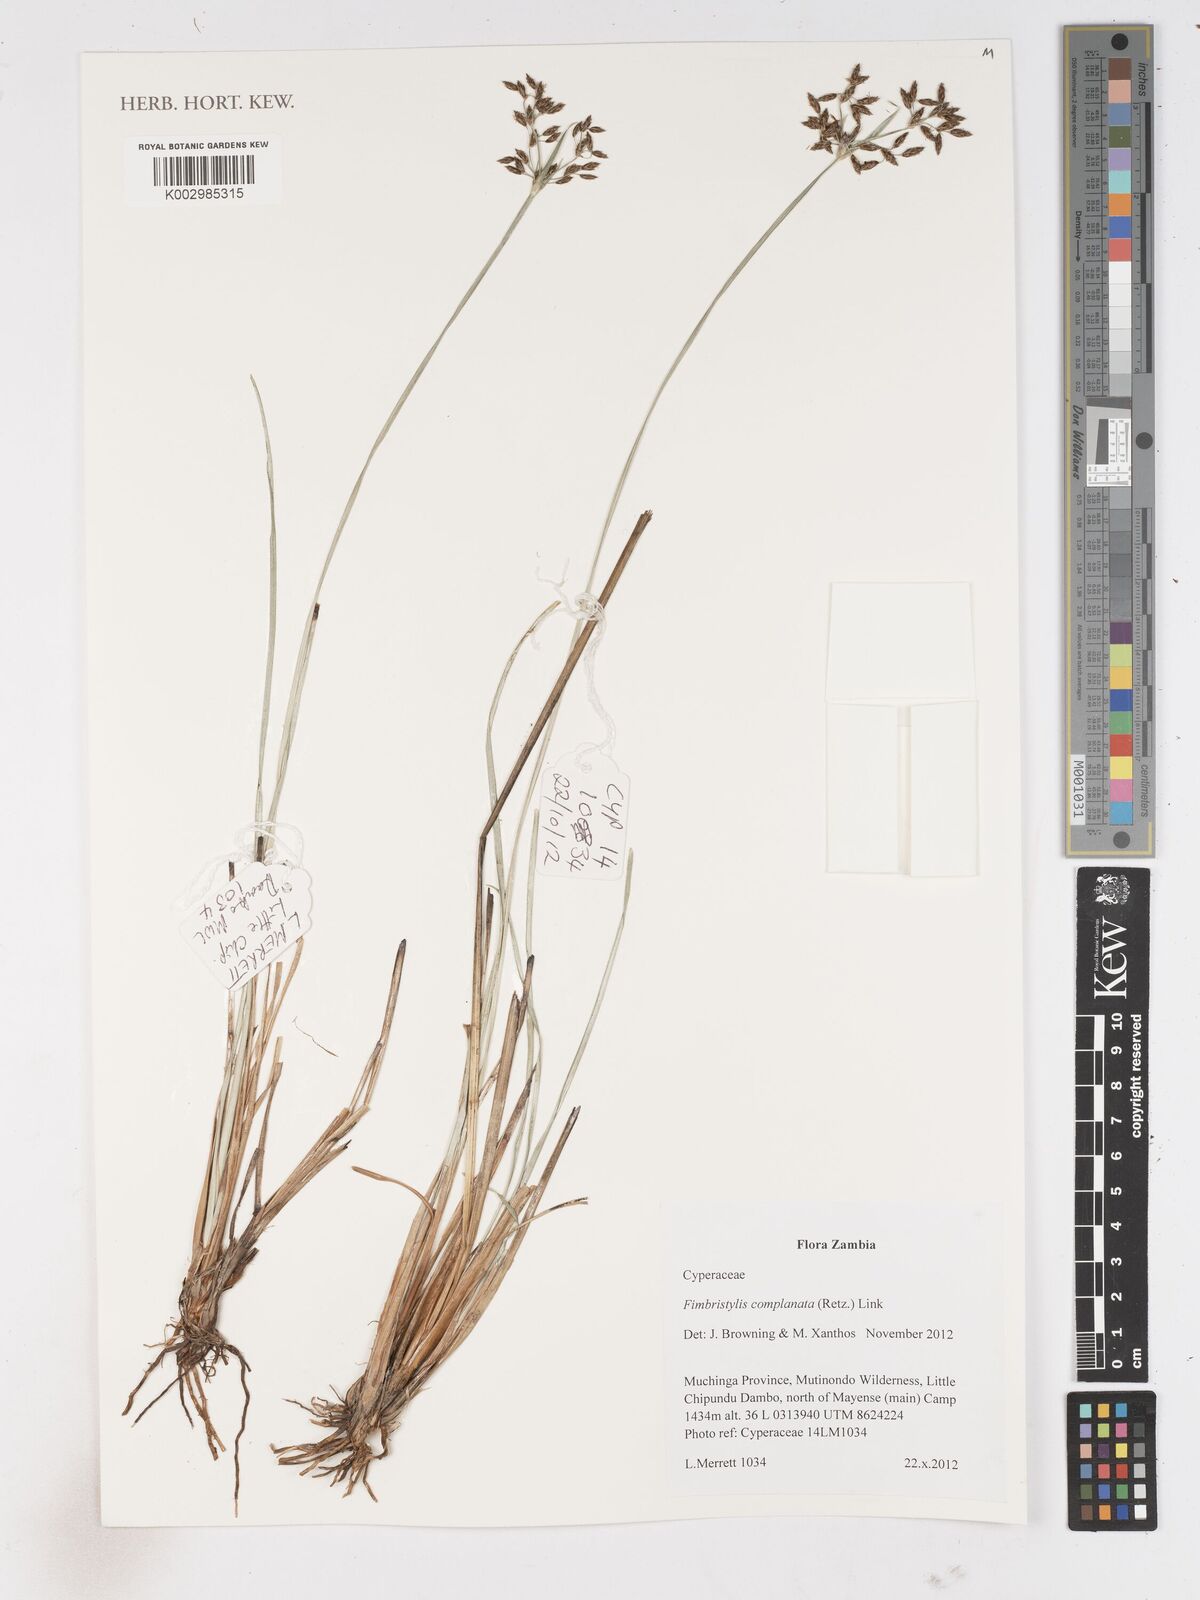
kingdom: Plantae
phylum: Tracheophyta
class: Liliopsida
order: Poales
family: Cyperaceae
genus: Fimbristylis
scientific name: Fimbristylis complanata
